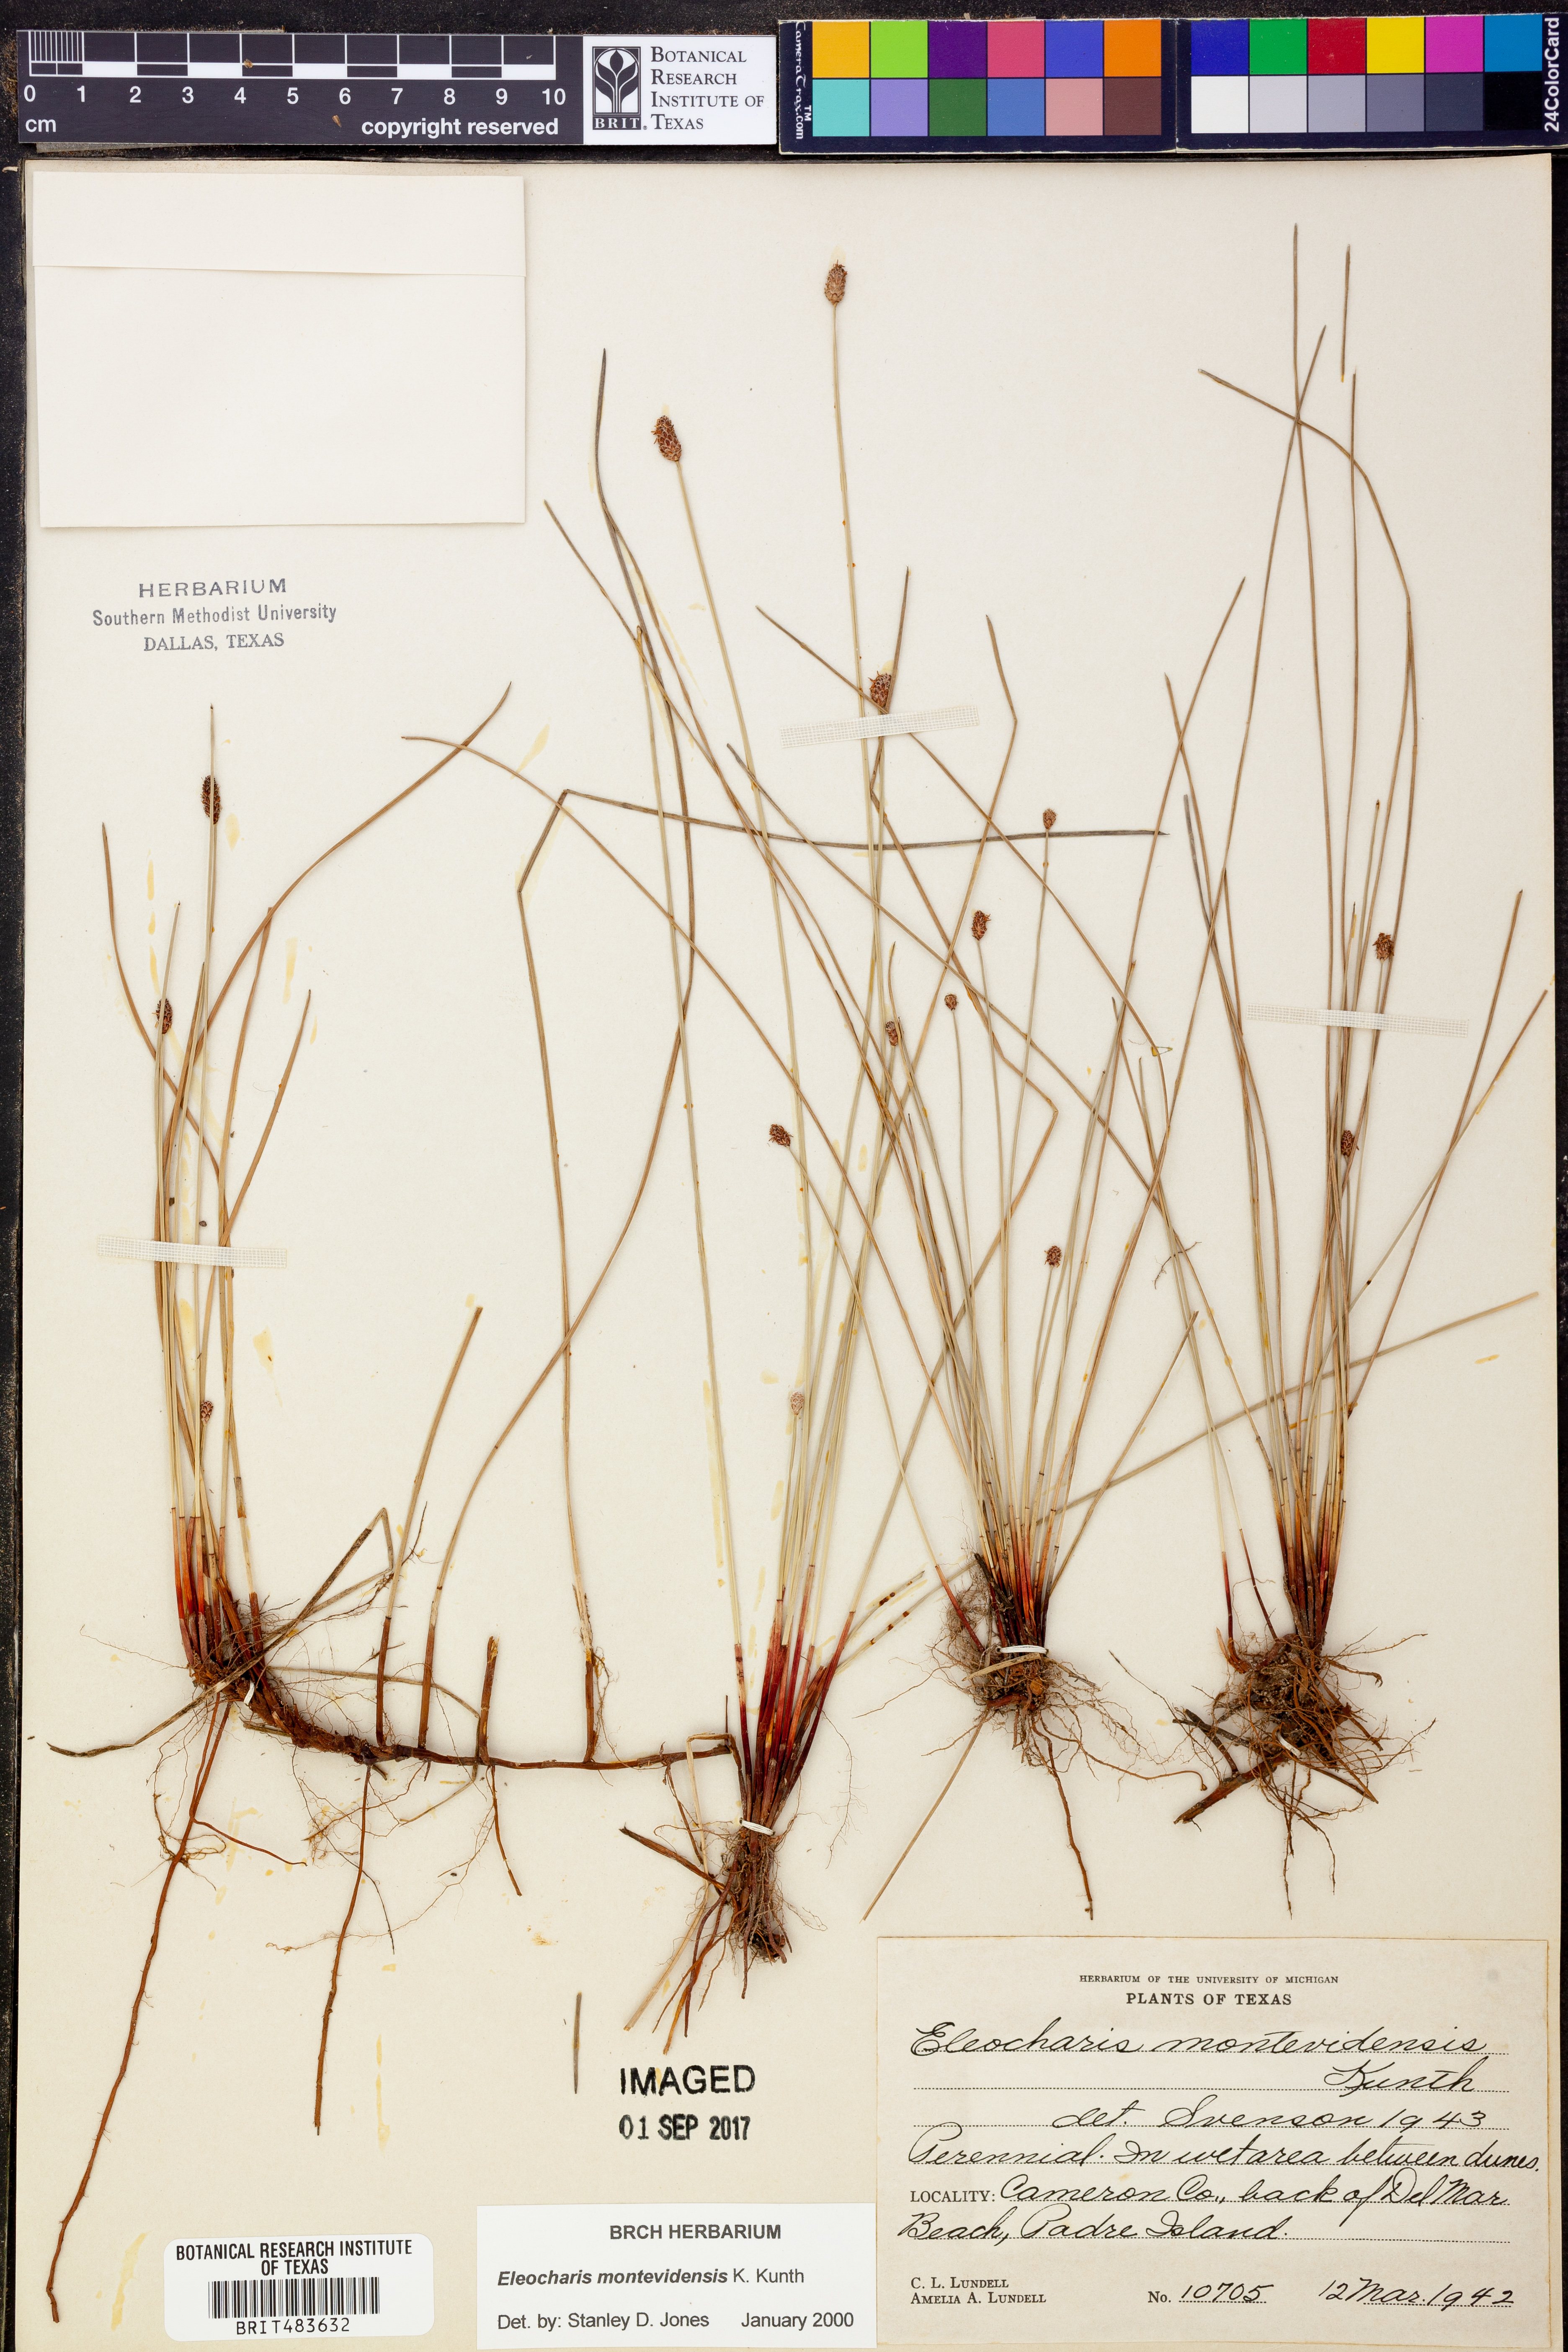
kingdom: Plantae
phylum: Tracheophyta
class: Liliopsida
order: Poales
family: Cyperaceae
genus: Eleocharis
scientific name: Eleocharis montevidensis
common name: Sand spike-rush
